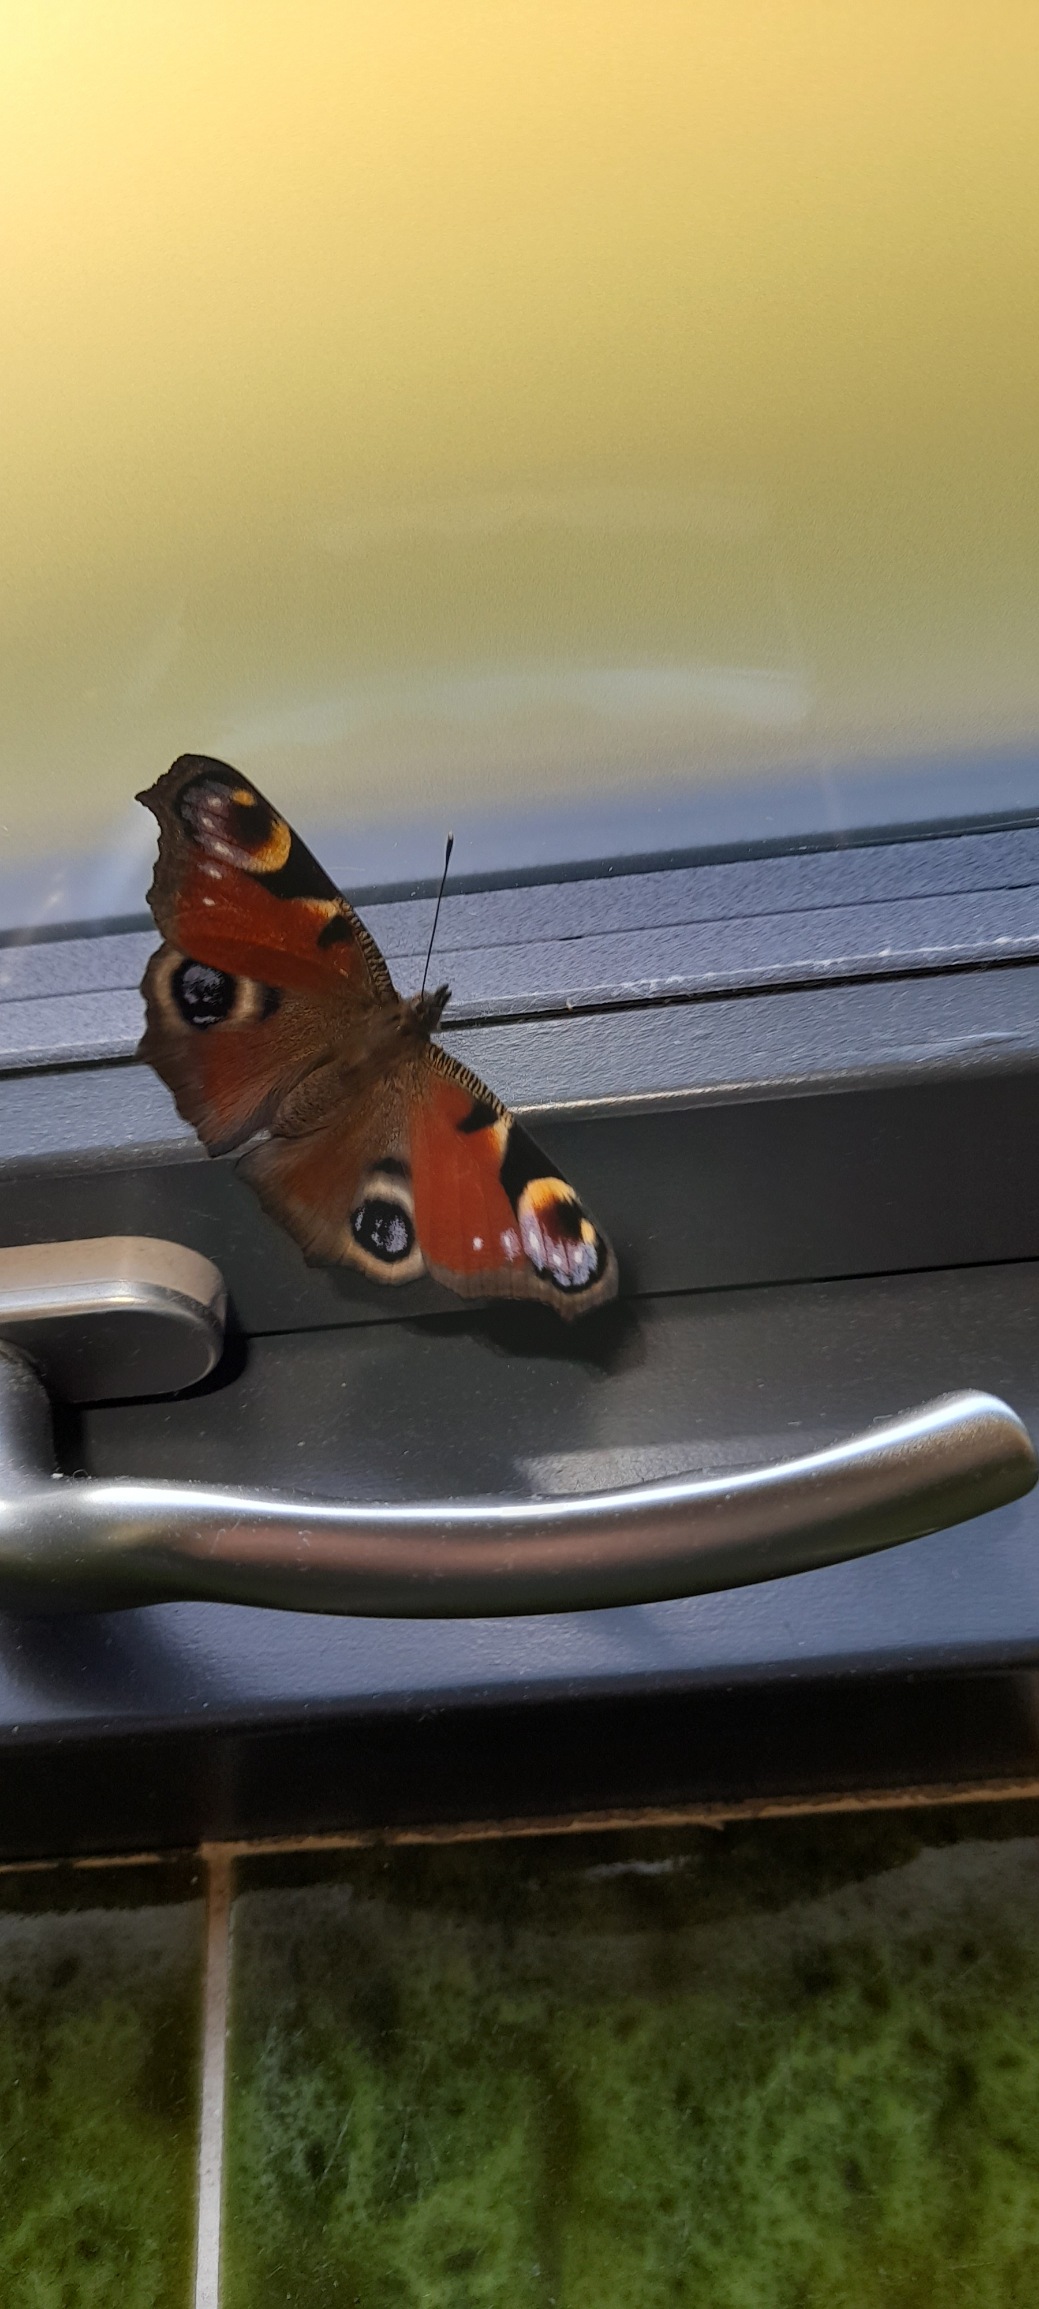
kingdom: Animalia
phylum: Arthropoda
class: Insecta
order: Lepidoptera
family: Nymphalidae
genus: Aglais
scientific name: Aglais io
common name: Dagpåfugleøje
